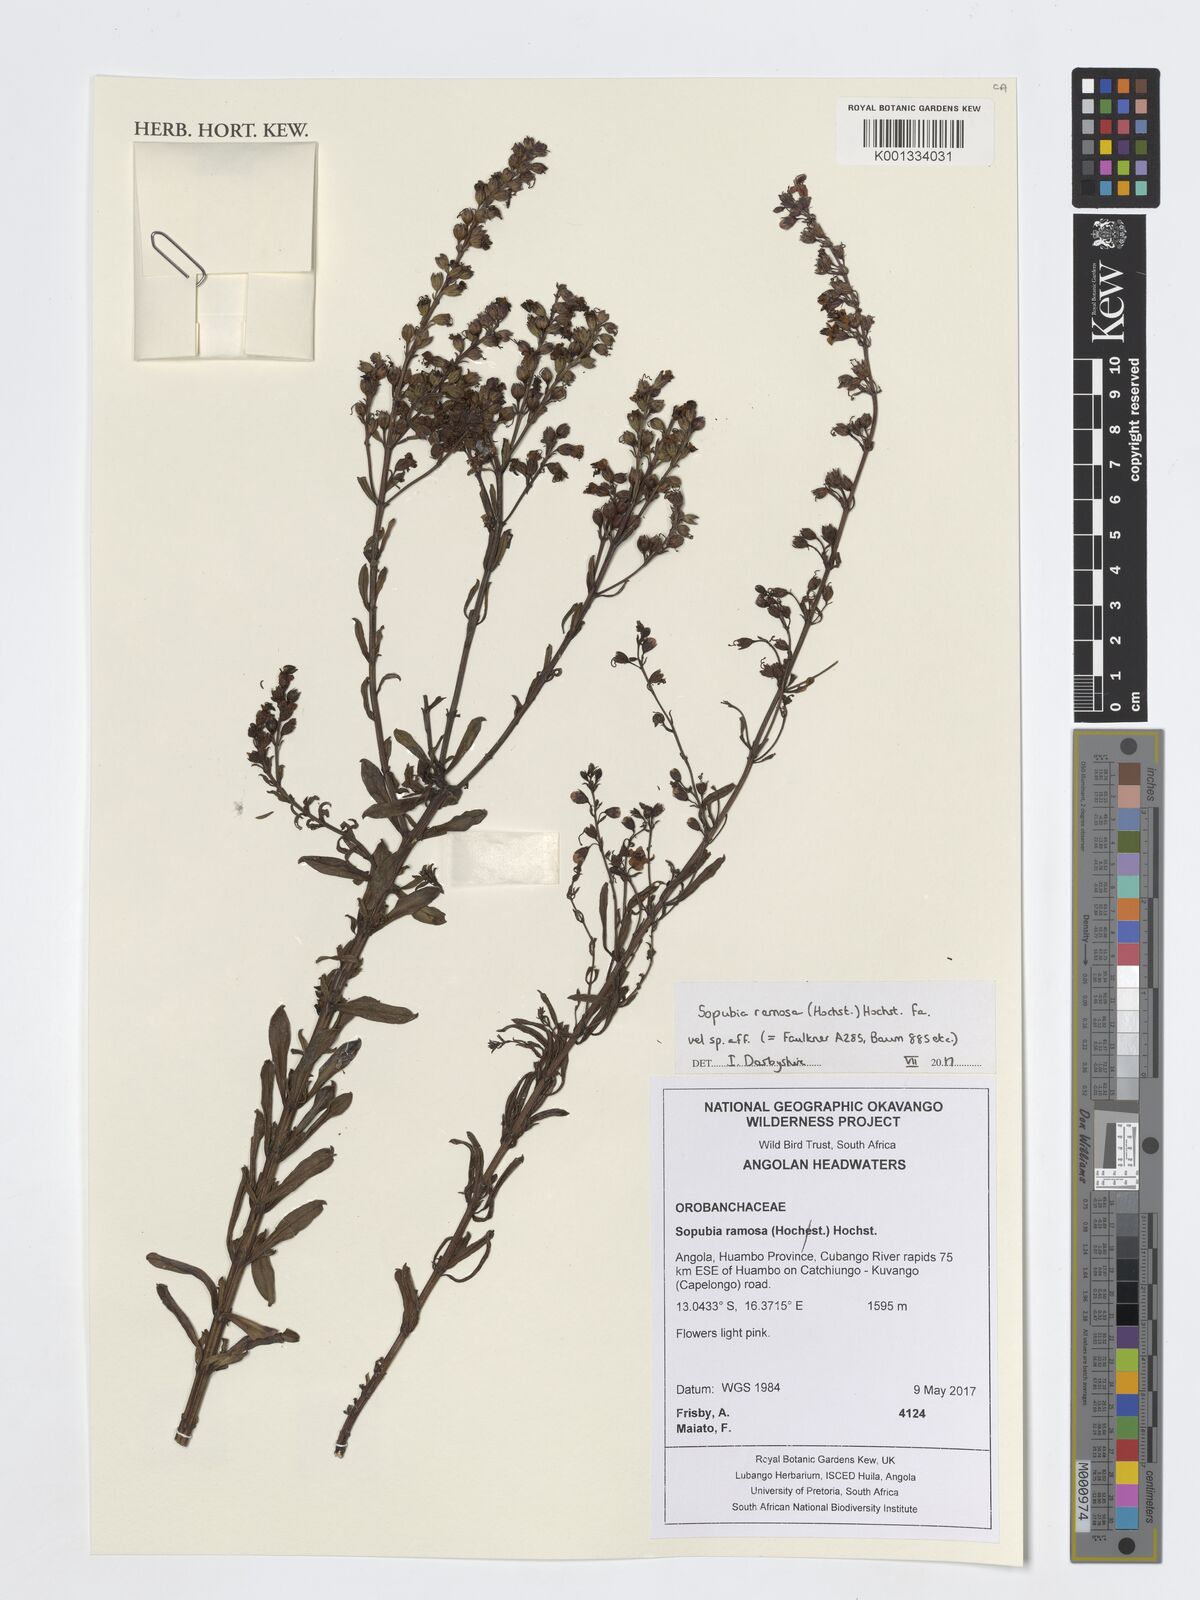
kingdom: Plantae
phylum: Tracheophyta
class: Magnoliopsida
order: Lamiales
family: Orobanchaceae
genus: Sopubia
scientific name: Sopubia ramosa
